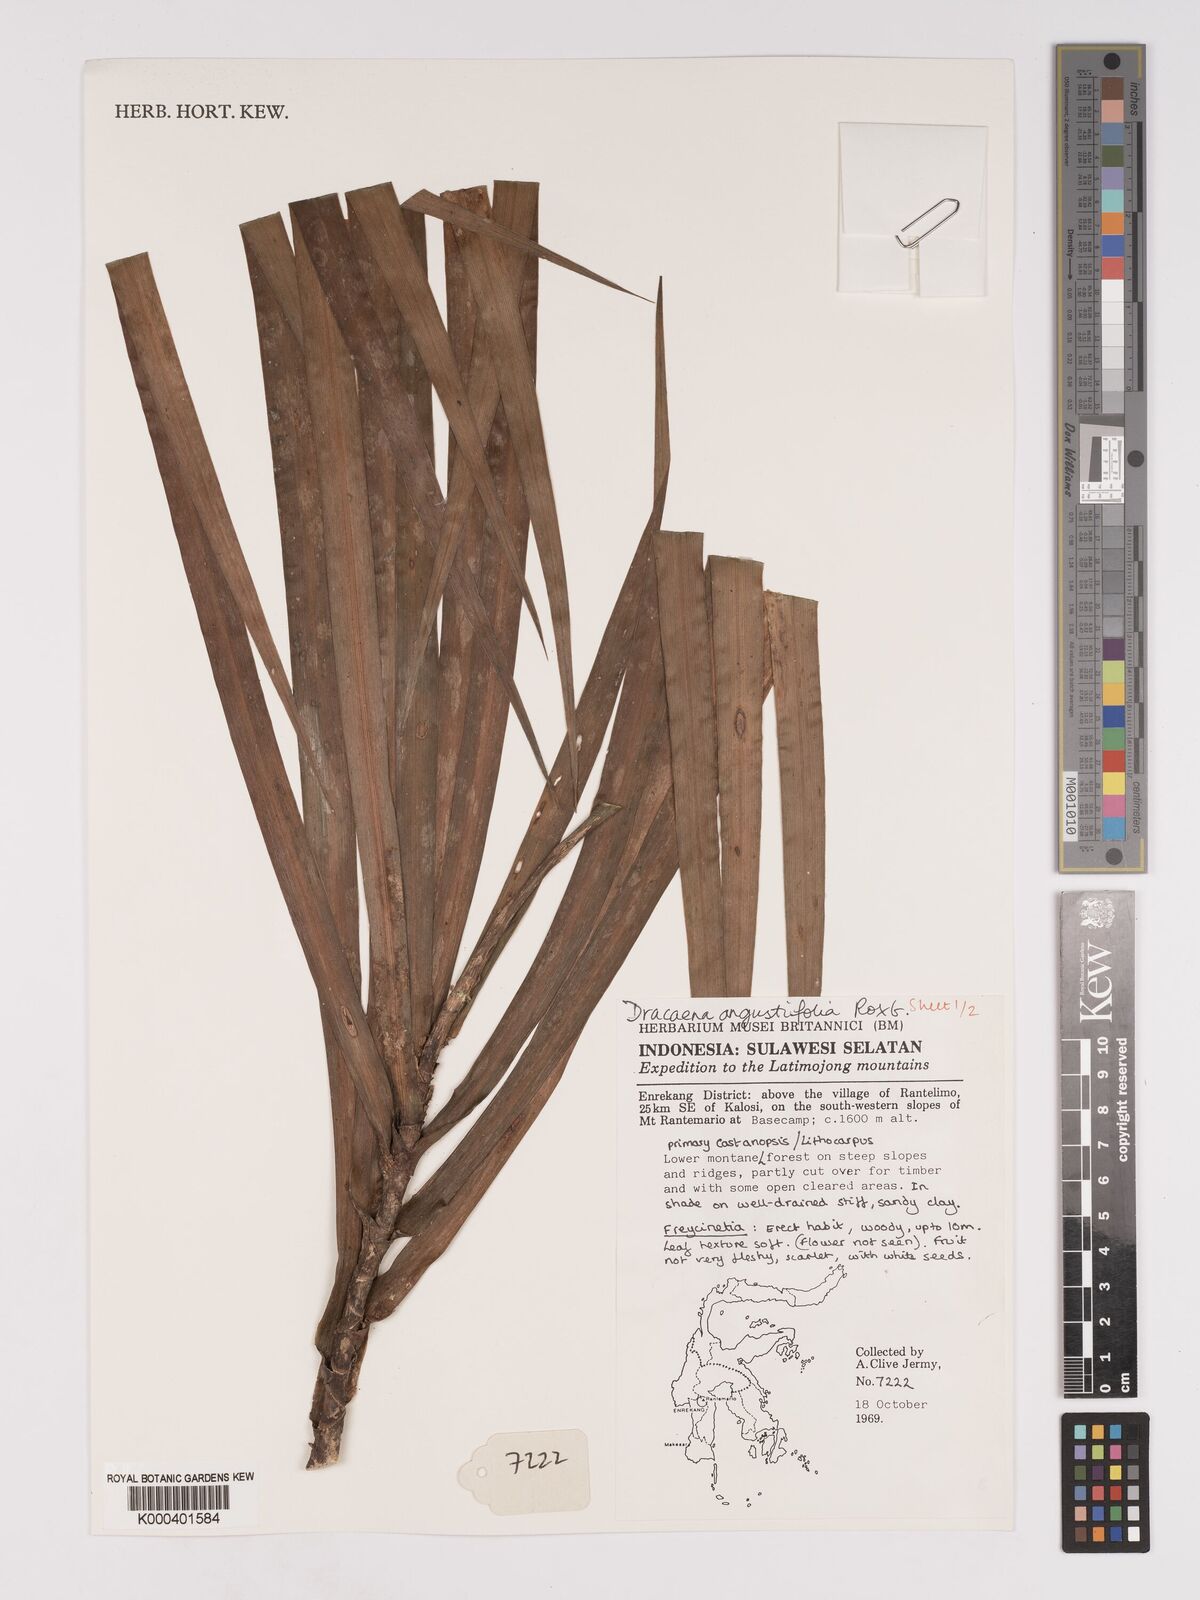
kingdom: Plantae
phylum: Tracheophyta
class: Liliopsida
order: Asparagales
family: Asparagaceae
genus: Dracaena
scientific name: Dracaena angustifolia
